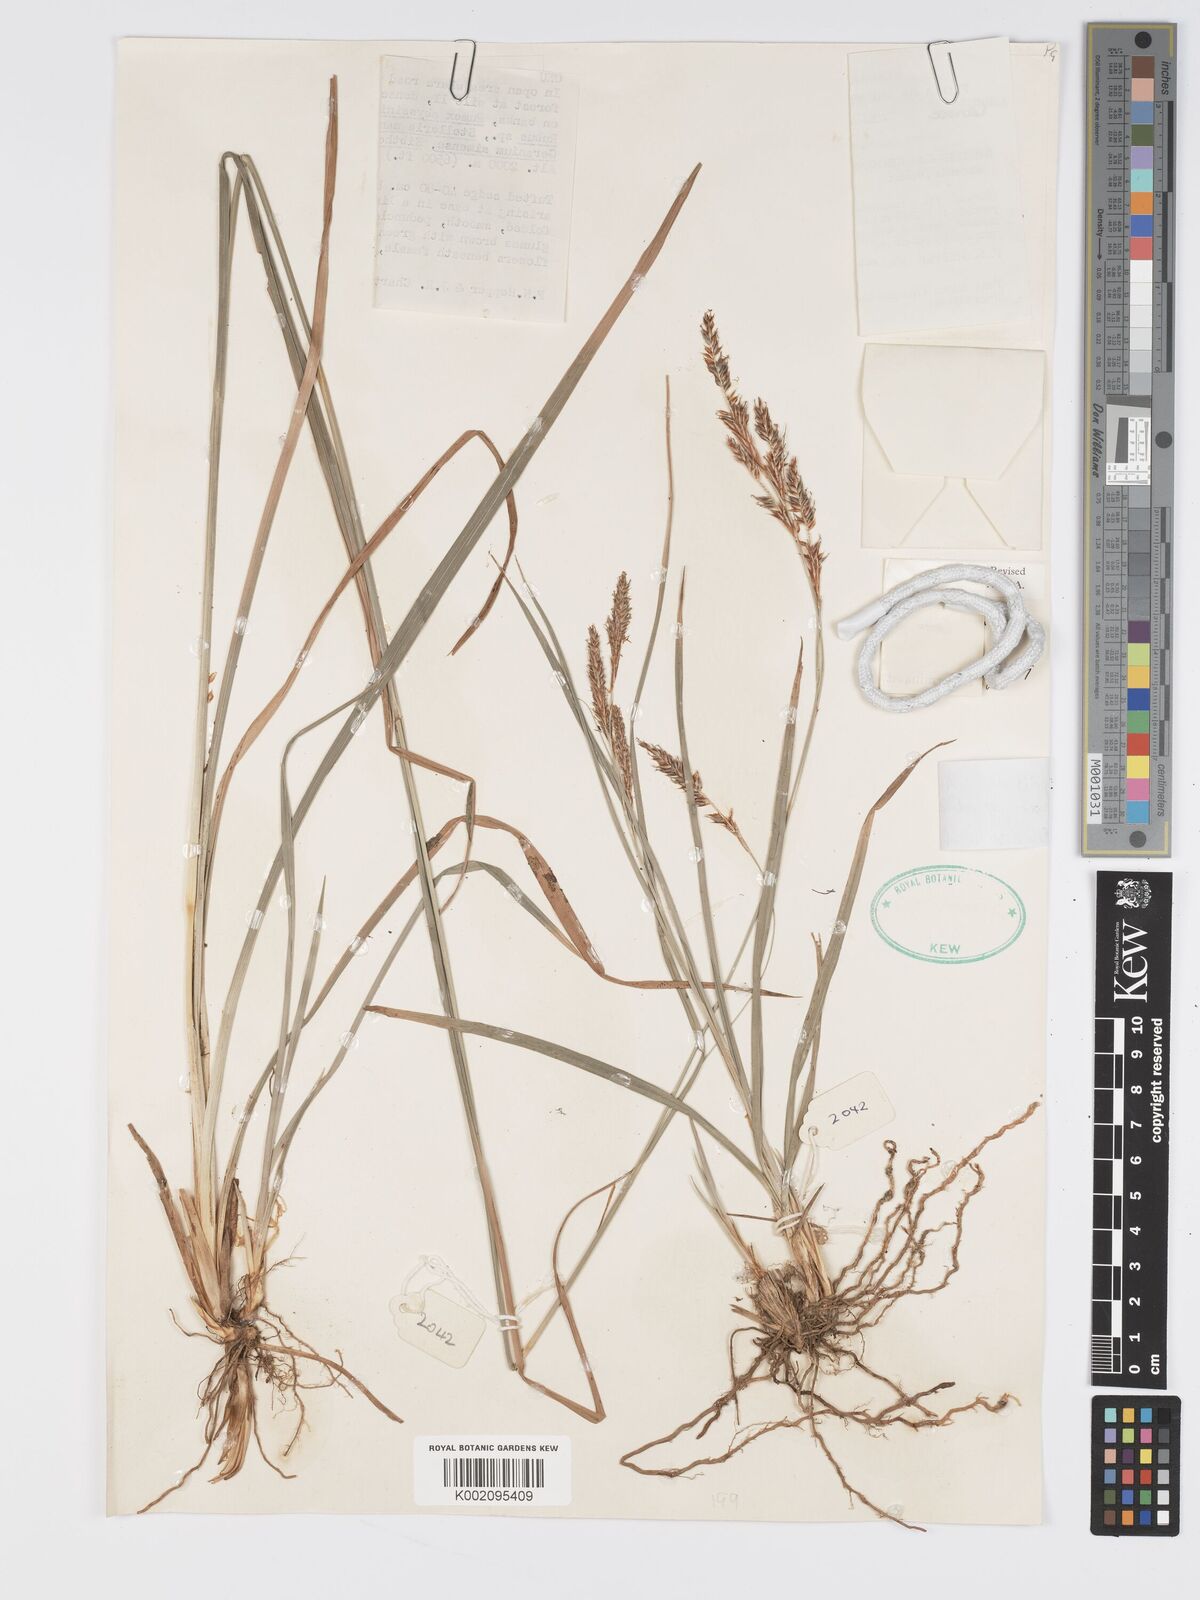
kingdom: Plantae
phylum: Tracheophyta
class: Liliopsida
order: Poales
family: Cyperaceae
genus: Carex
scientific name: Carex petitiana
